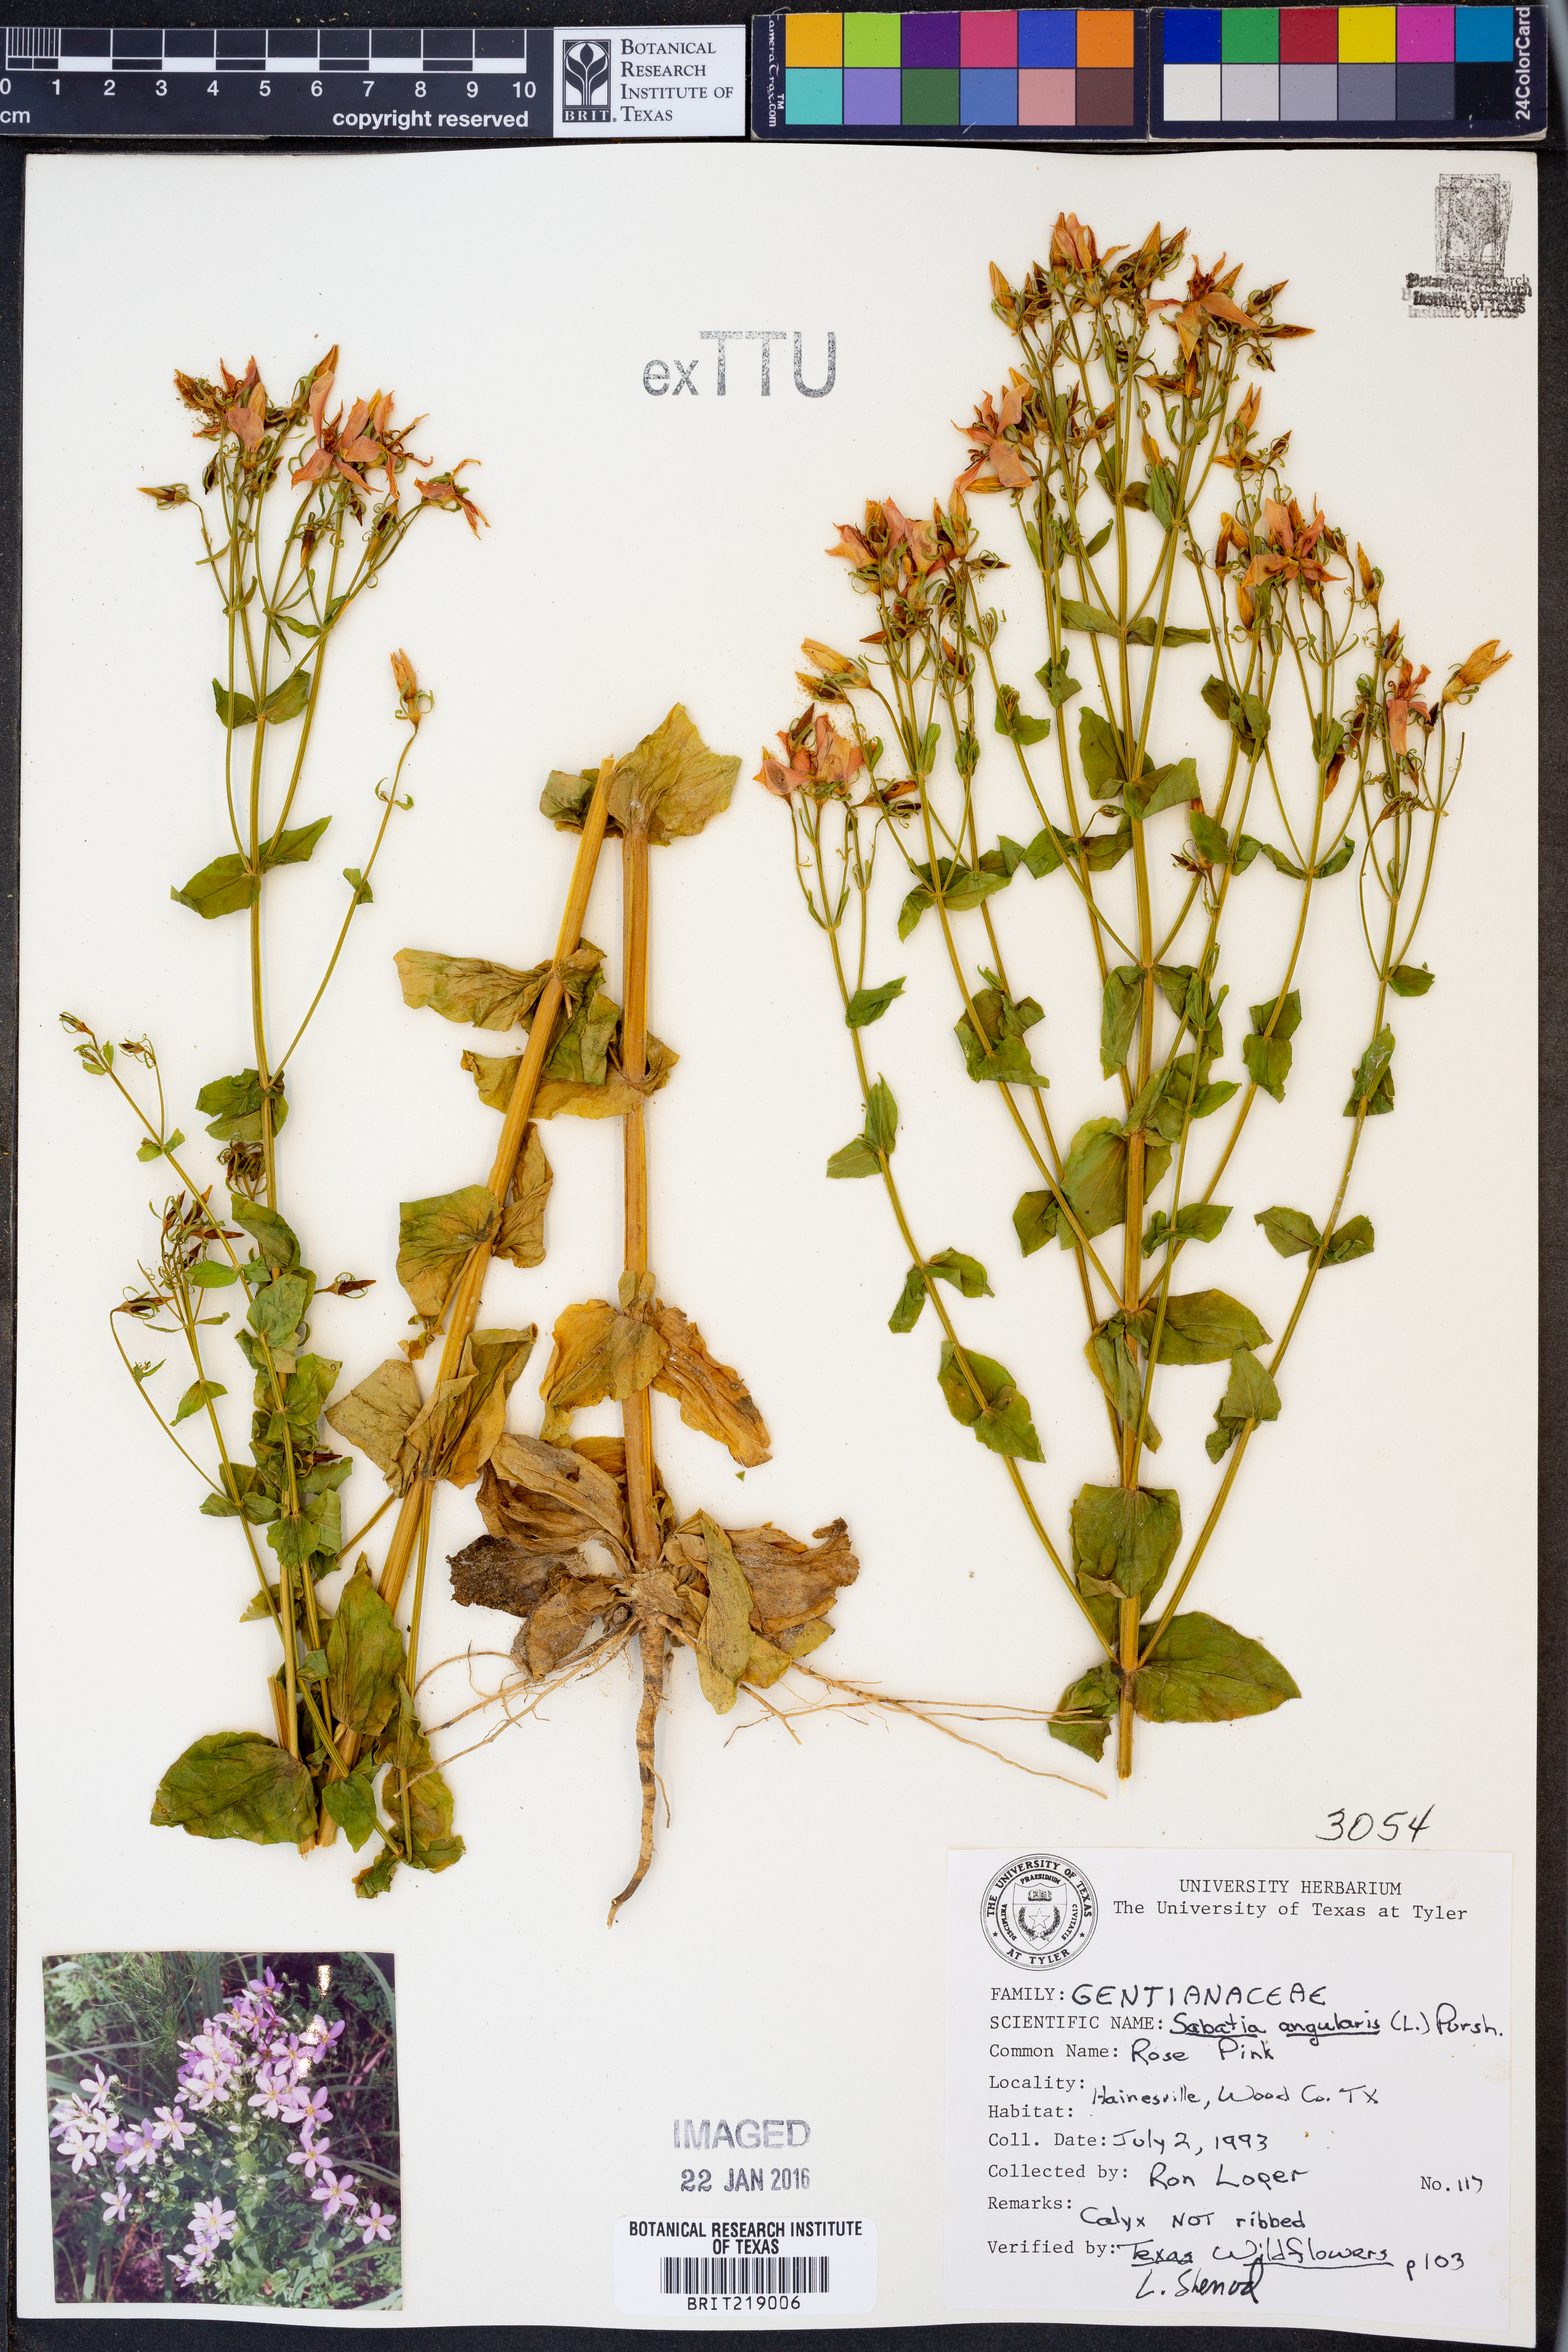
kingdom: Plantae
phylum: Tracheophyta
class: Magnoliopsida
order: Gentianales
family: Gentianaceae
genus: Sabatia
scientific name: Sabatia angularis
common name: Rose-pink
